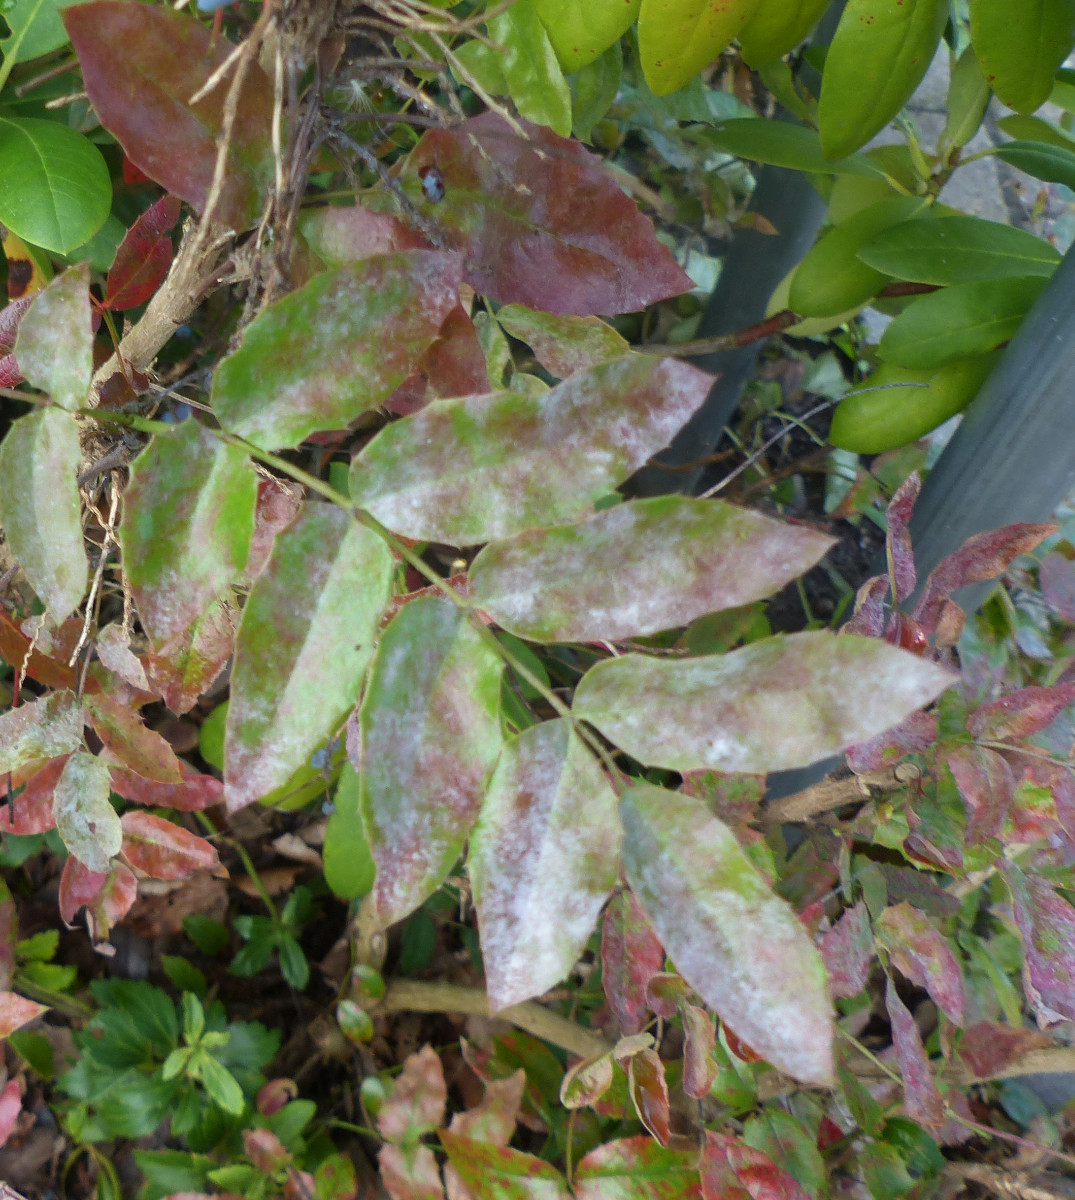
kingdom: Fungi
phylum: Ascomycota
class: Leotiomycetes
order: Helotiales
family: Erysiphaceae
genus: Erysiphe
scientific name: Erysiphe berberidis
